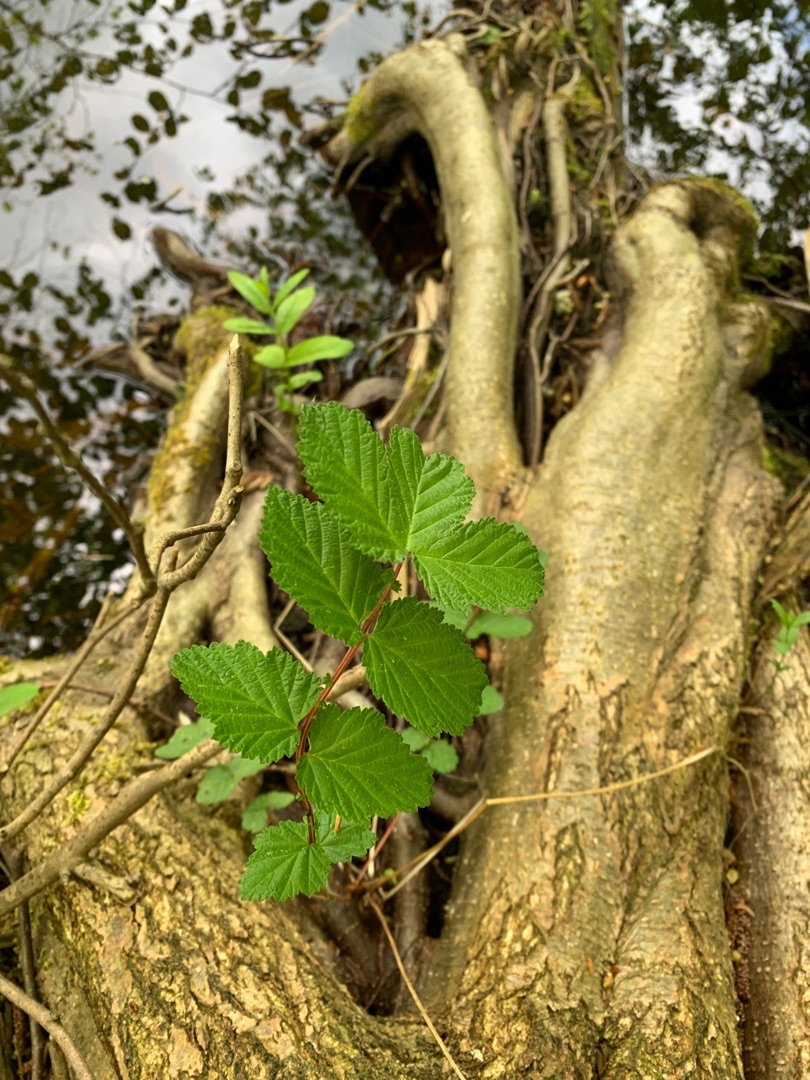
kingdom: Plantae
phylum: Tracheophyta
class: Magnoliopsida
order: Rosales
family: Rosaceae
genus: Filipendula
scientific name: Filipendula ulmaria
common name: Almindelig mjødurt
